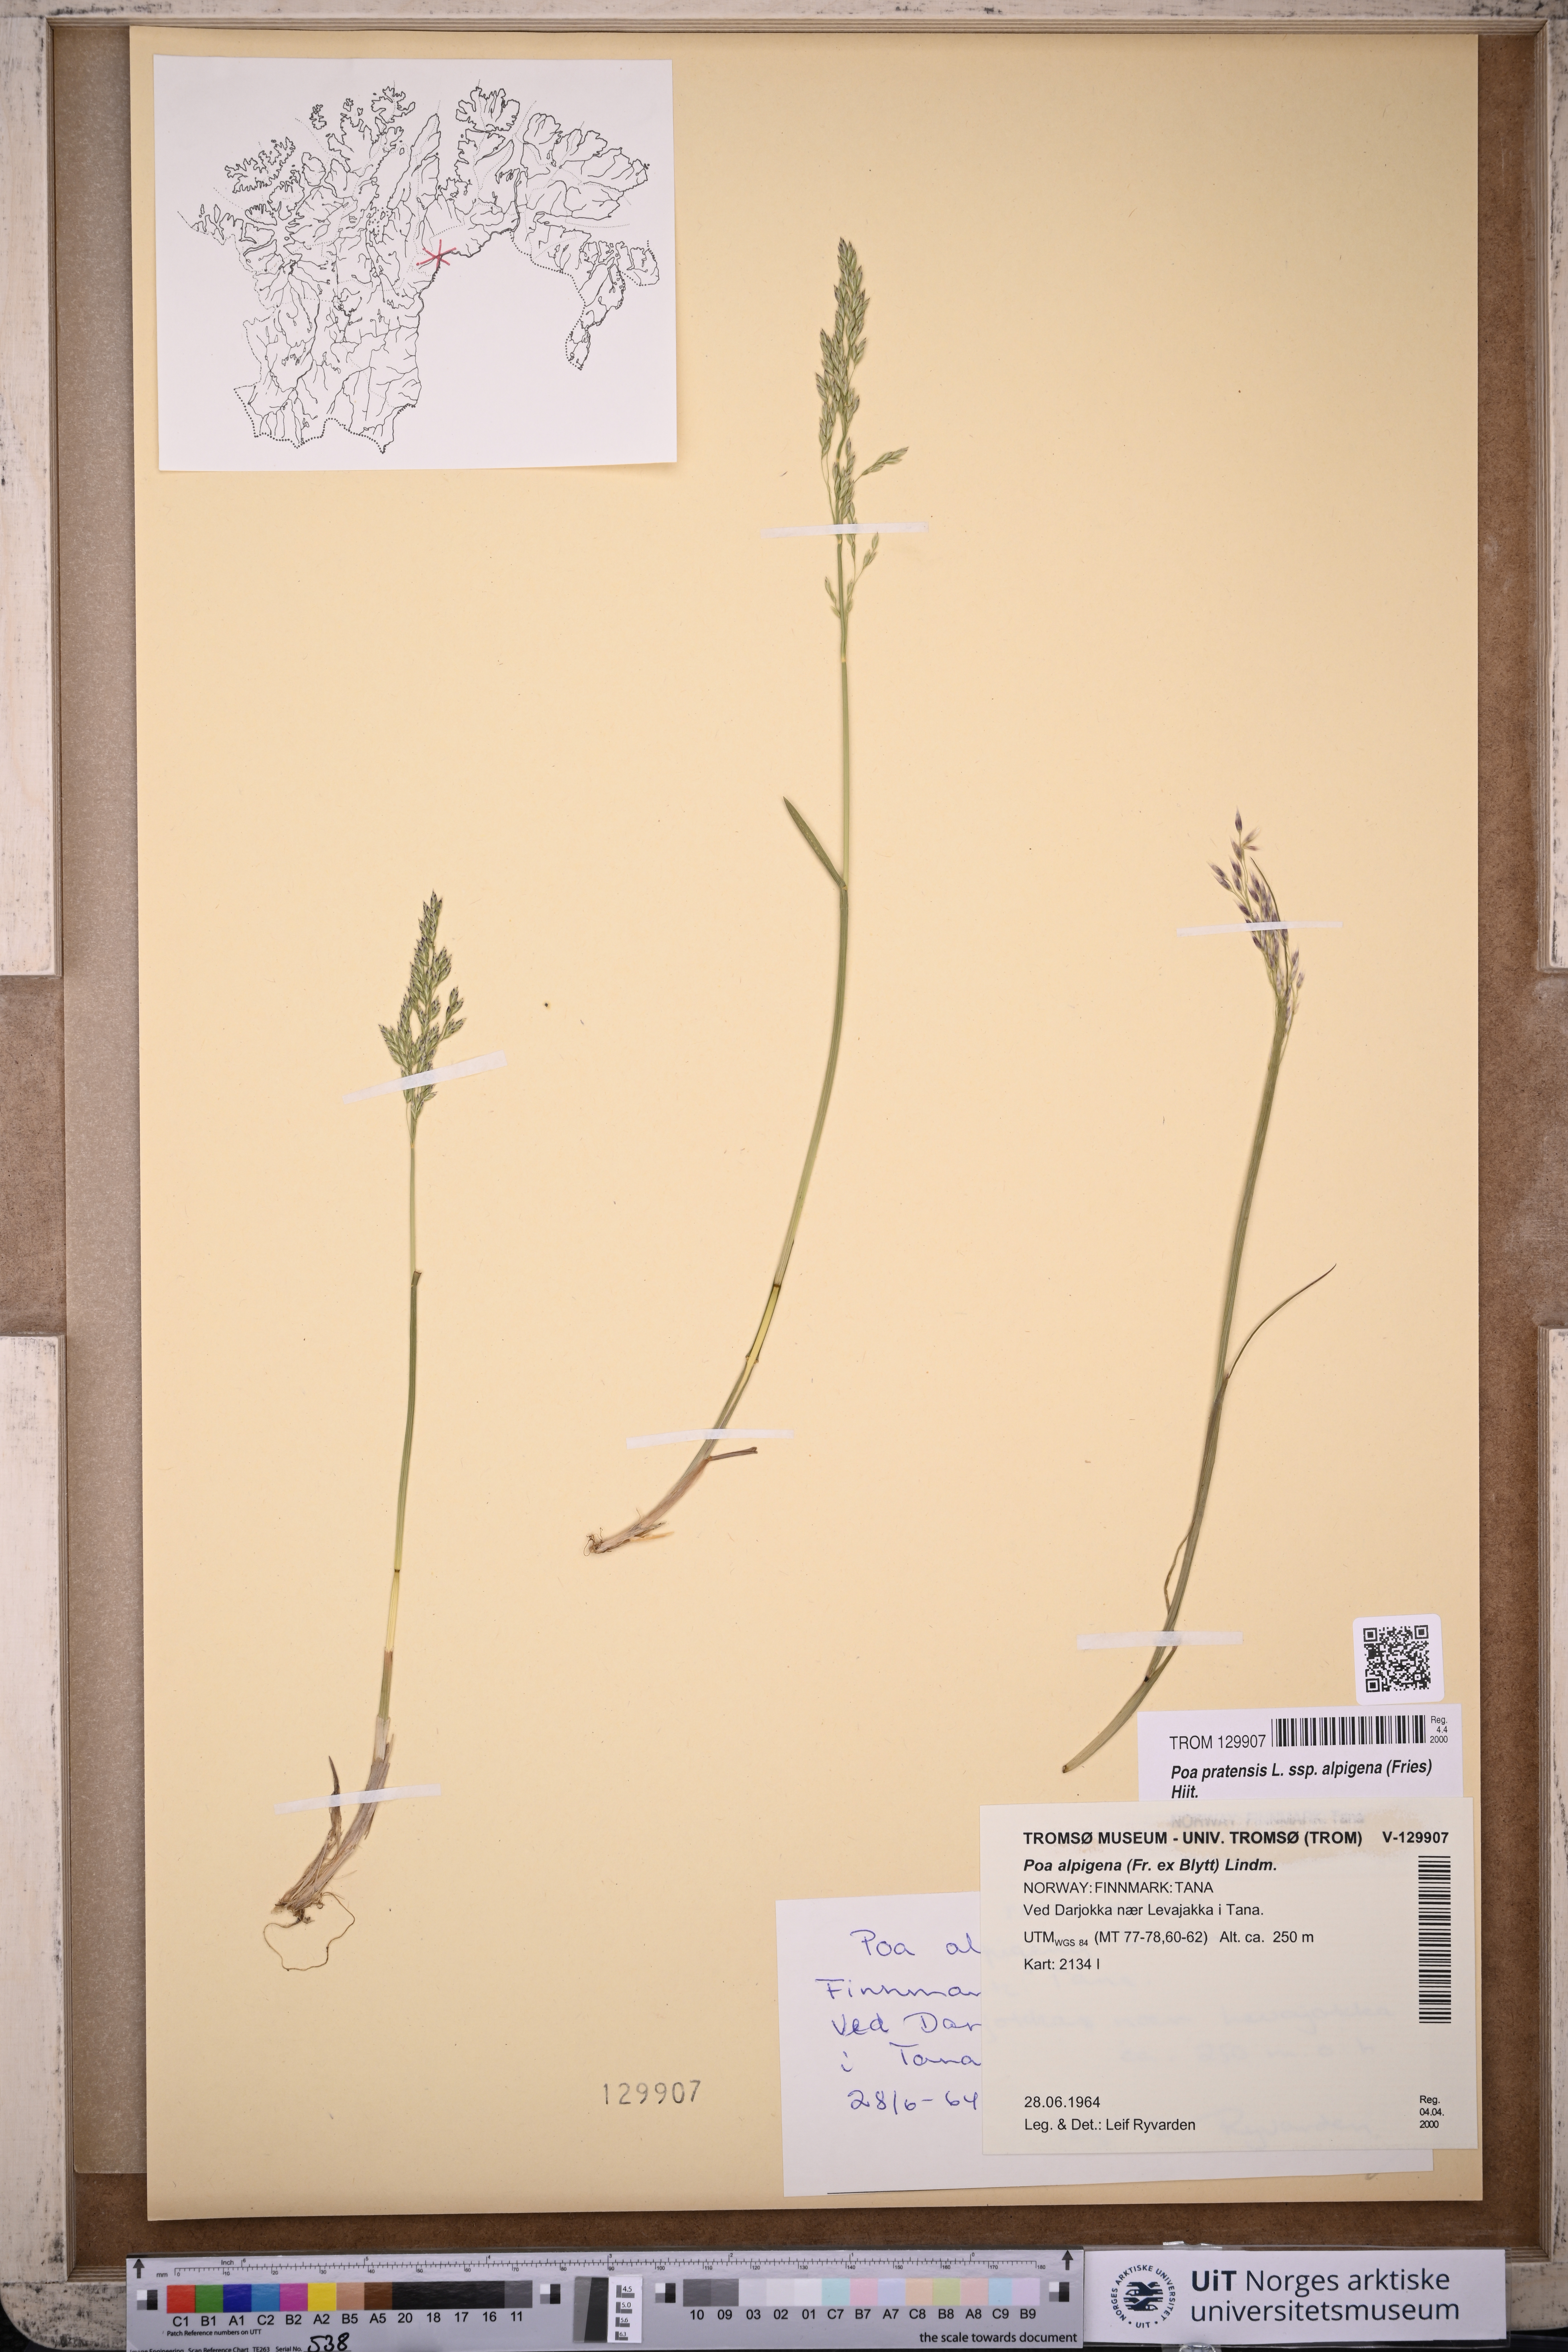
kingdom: Plantae
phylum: Tracheophyta
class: Liliopsida
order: Poales
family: Poaceae
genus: Poa
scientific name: Poa alpigena
